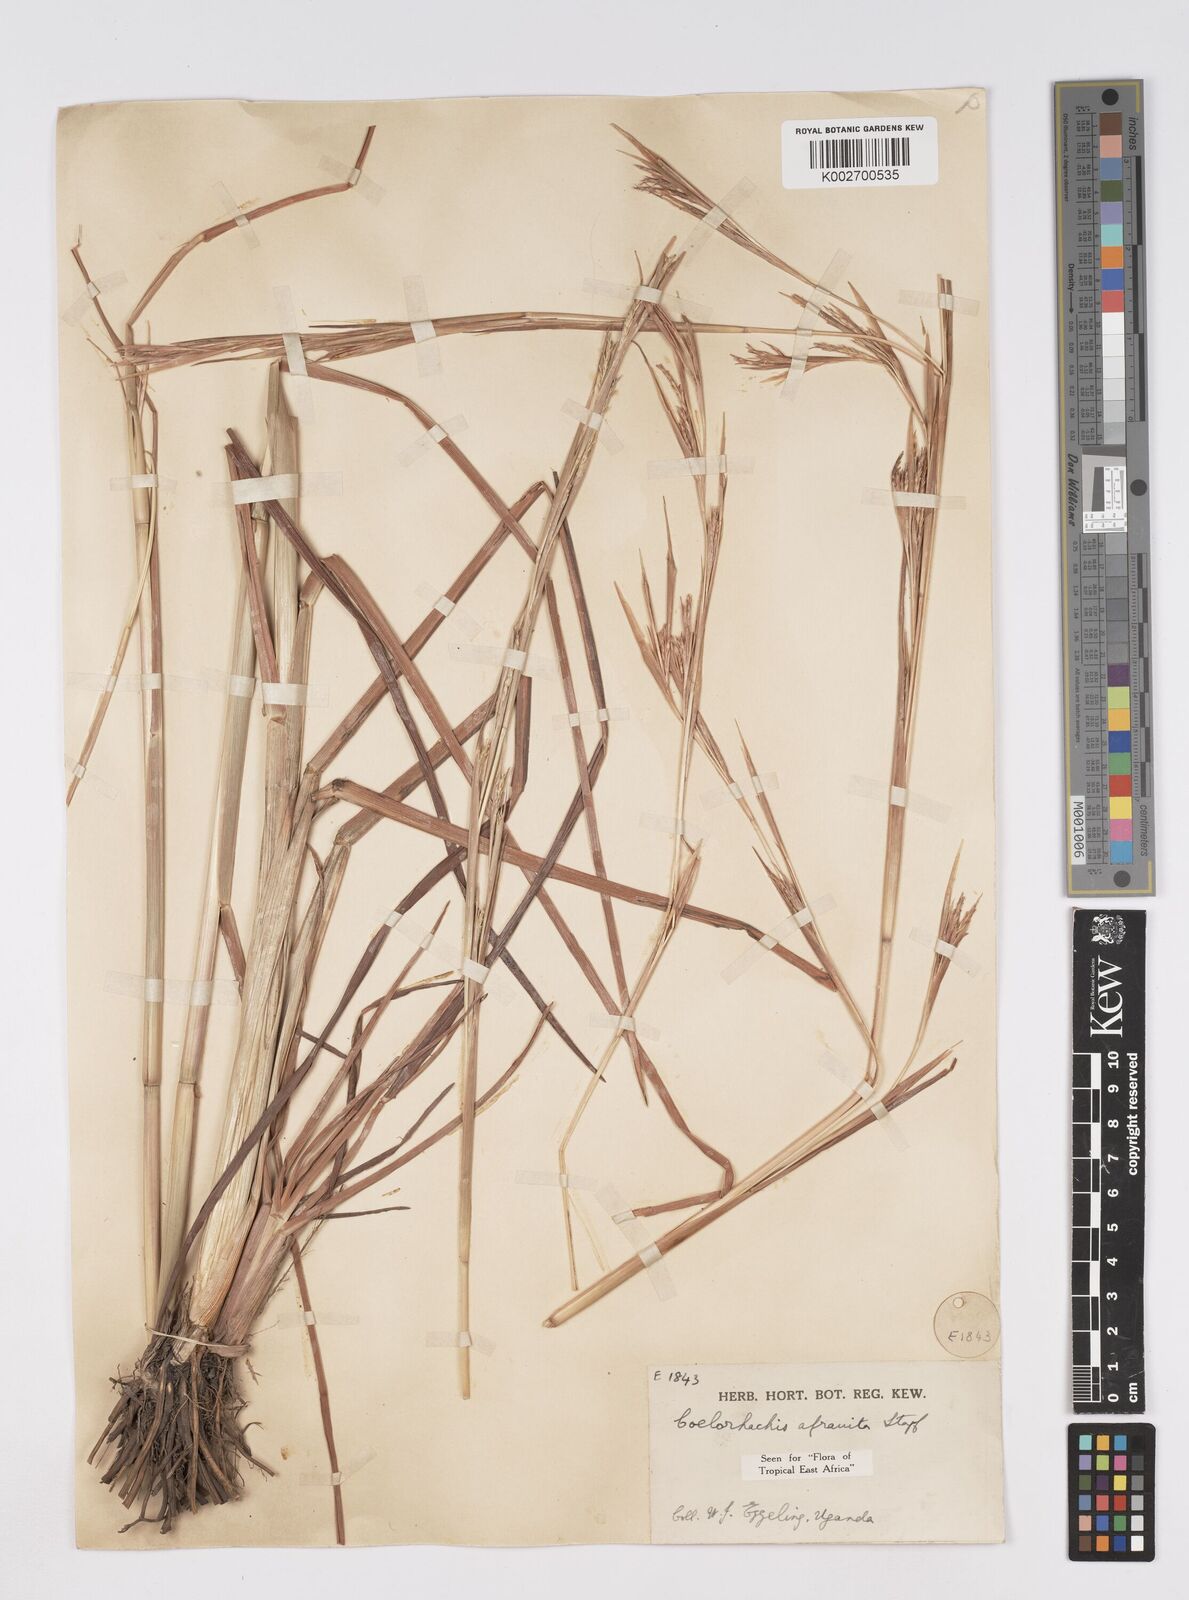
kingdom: Plantae
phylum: Tracheophyta
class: Liliopsida
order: Poales
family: Poaceae
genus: Rottboellia
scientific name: Rottboellia afraurita
